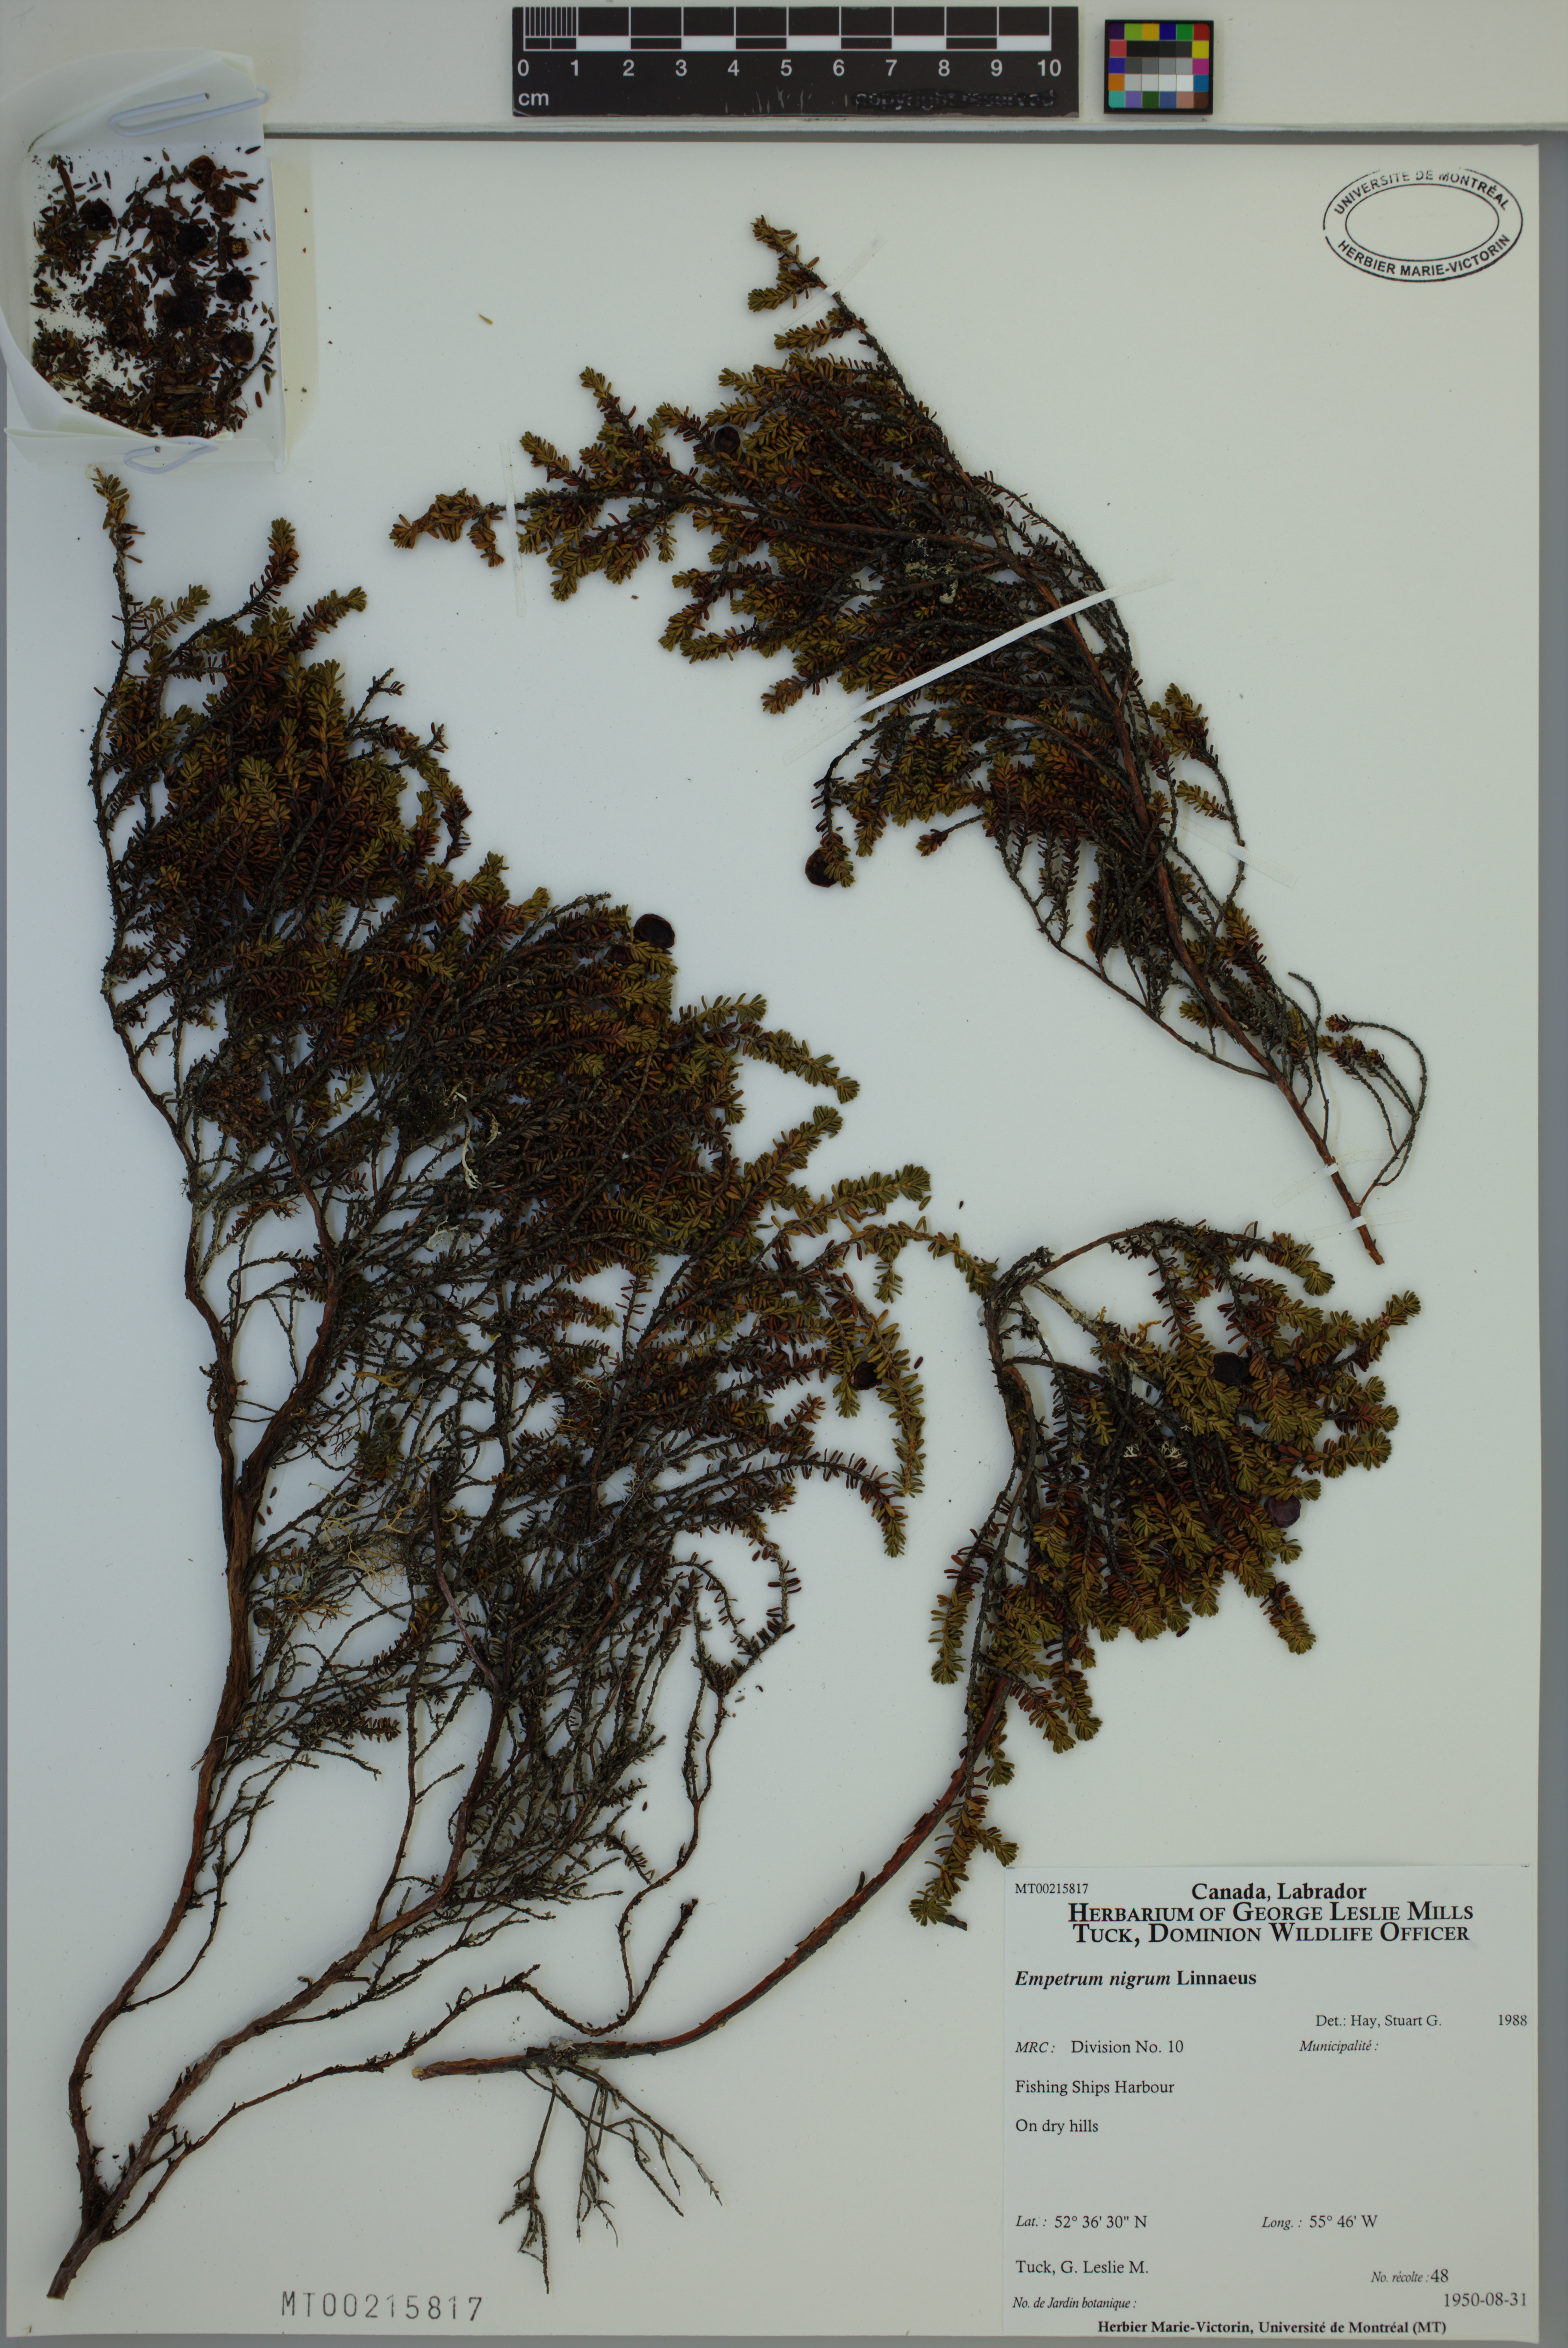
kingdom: Plantae
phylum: Tracheophyta
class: Magnoliopsida
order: Ericales
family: Ericaceae
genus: Empetrum
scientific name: Empetrum nigrum
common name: Black crowberry
